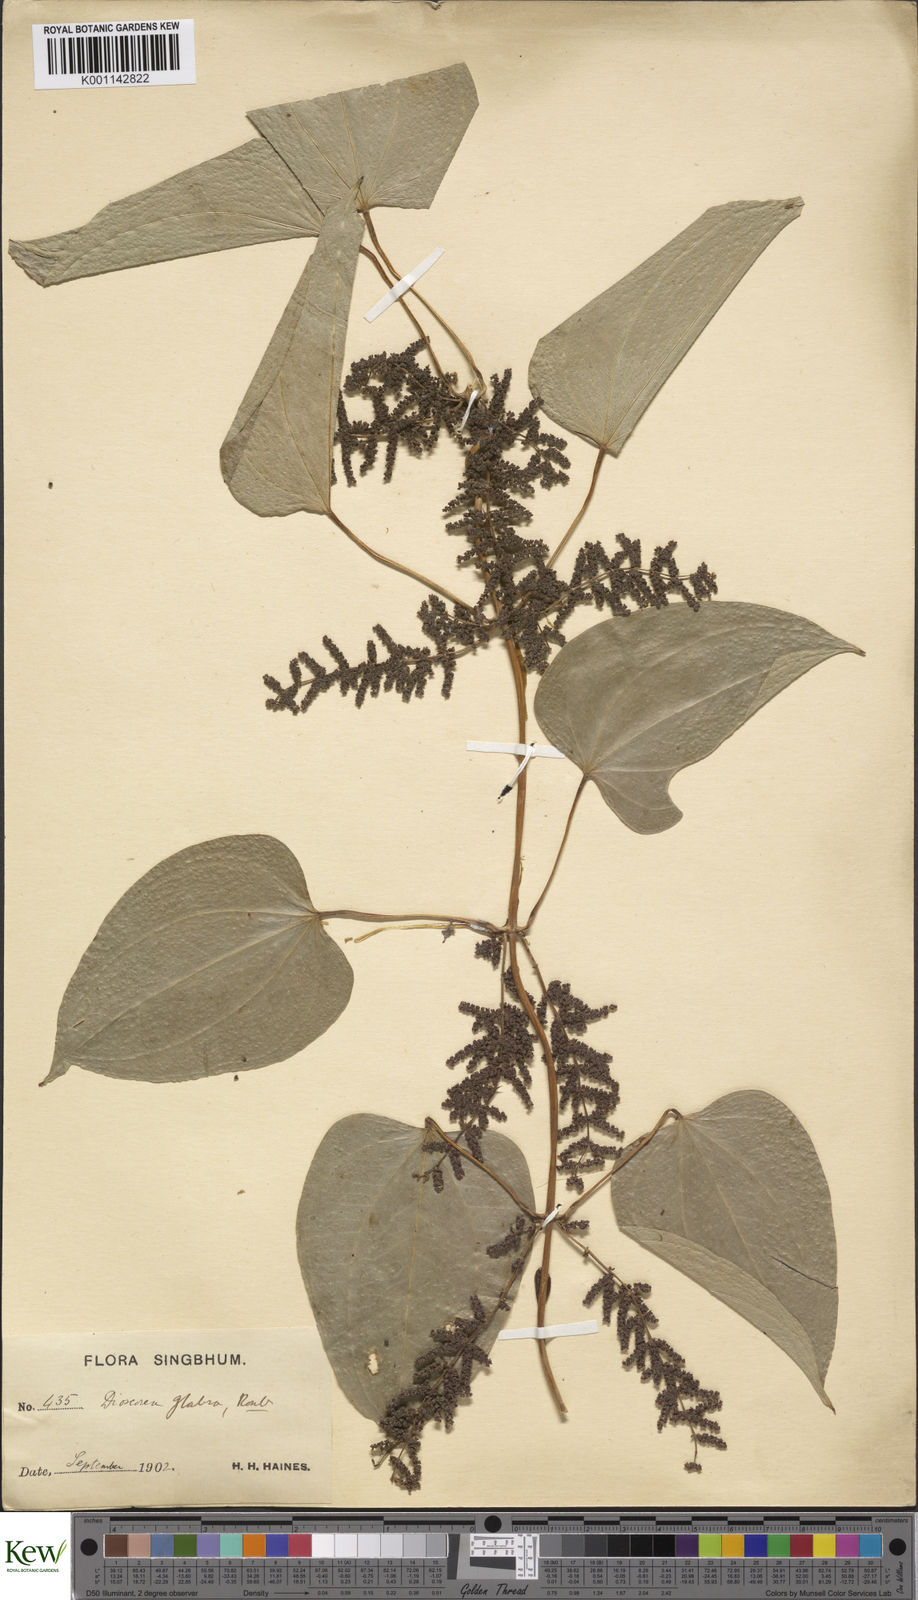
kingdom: Plantae
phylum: Tracheophyta
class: Liliopsida
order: Dioscoreales
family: Dioscoreaceae
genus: Dioscorea
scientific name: Dioscorea glabra
